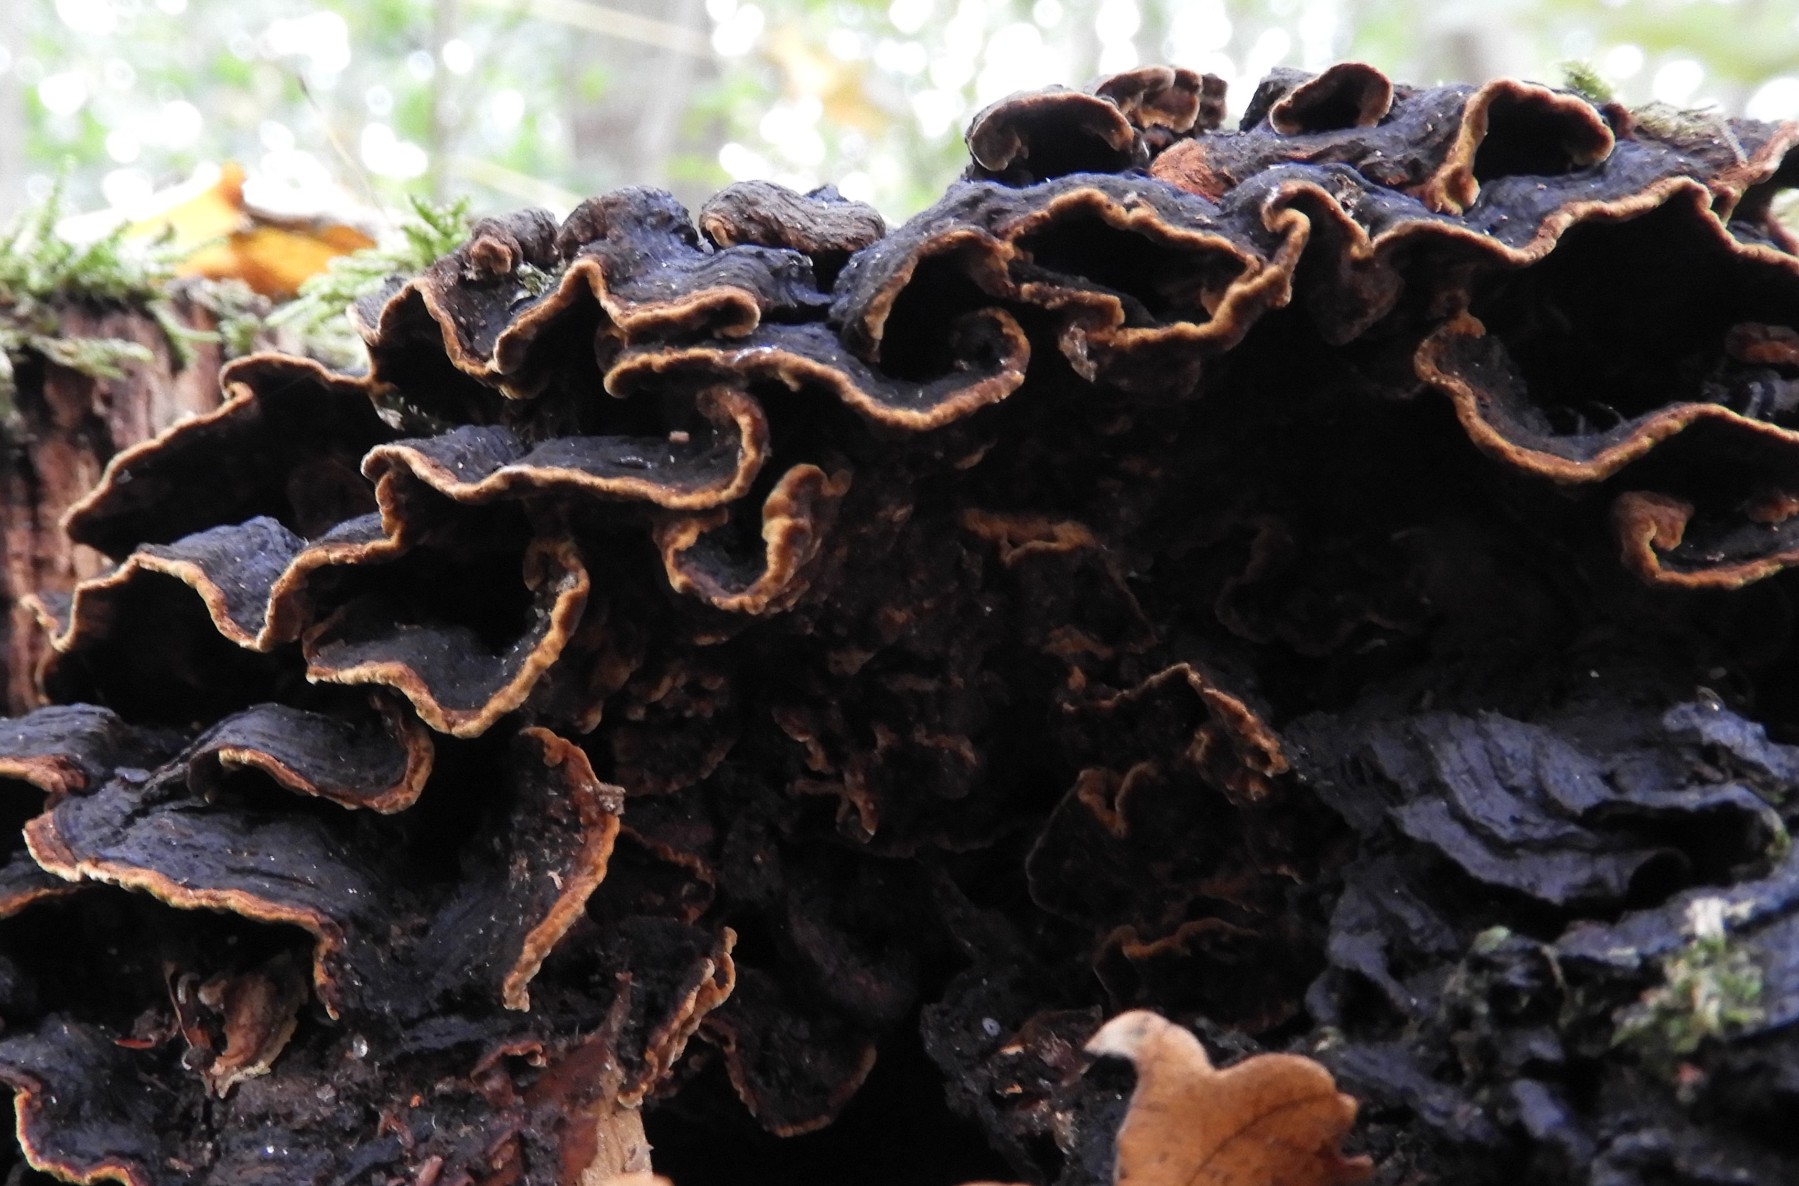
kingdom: Fungi
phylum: Basidiomycota
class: Agaricomycetes
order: Hymenochaetales
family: Hymenochaetaceae
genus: Hymenochaete
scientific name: Hymenochaete rubiginosa
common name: stiv ruslædersvamp
